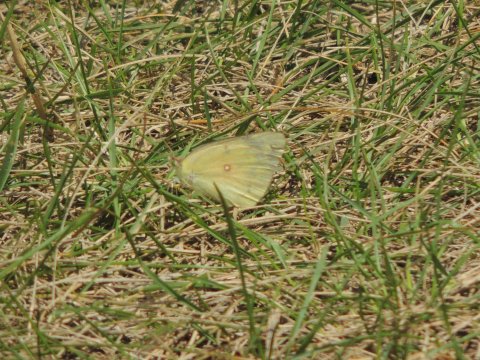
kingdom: Animalia
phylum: Arthropoda
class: Insecta
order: Lepidoptera
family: Pieridae
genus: Colias
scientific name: Colias eurytheme
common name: Orange Sulphur
